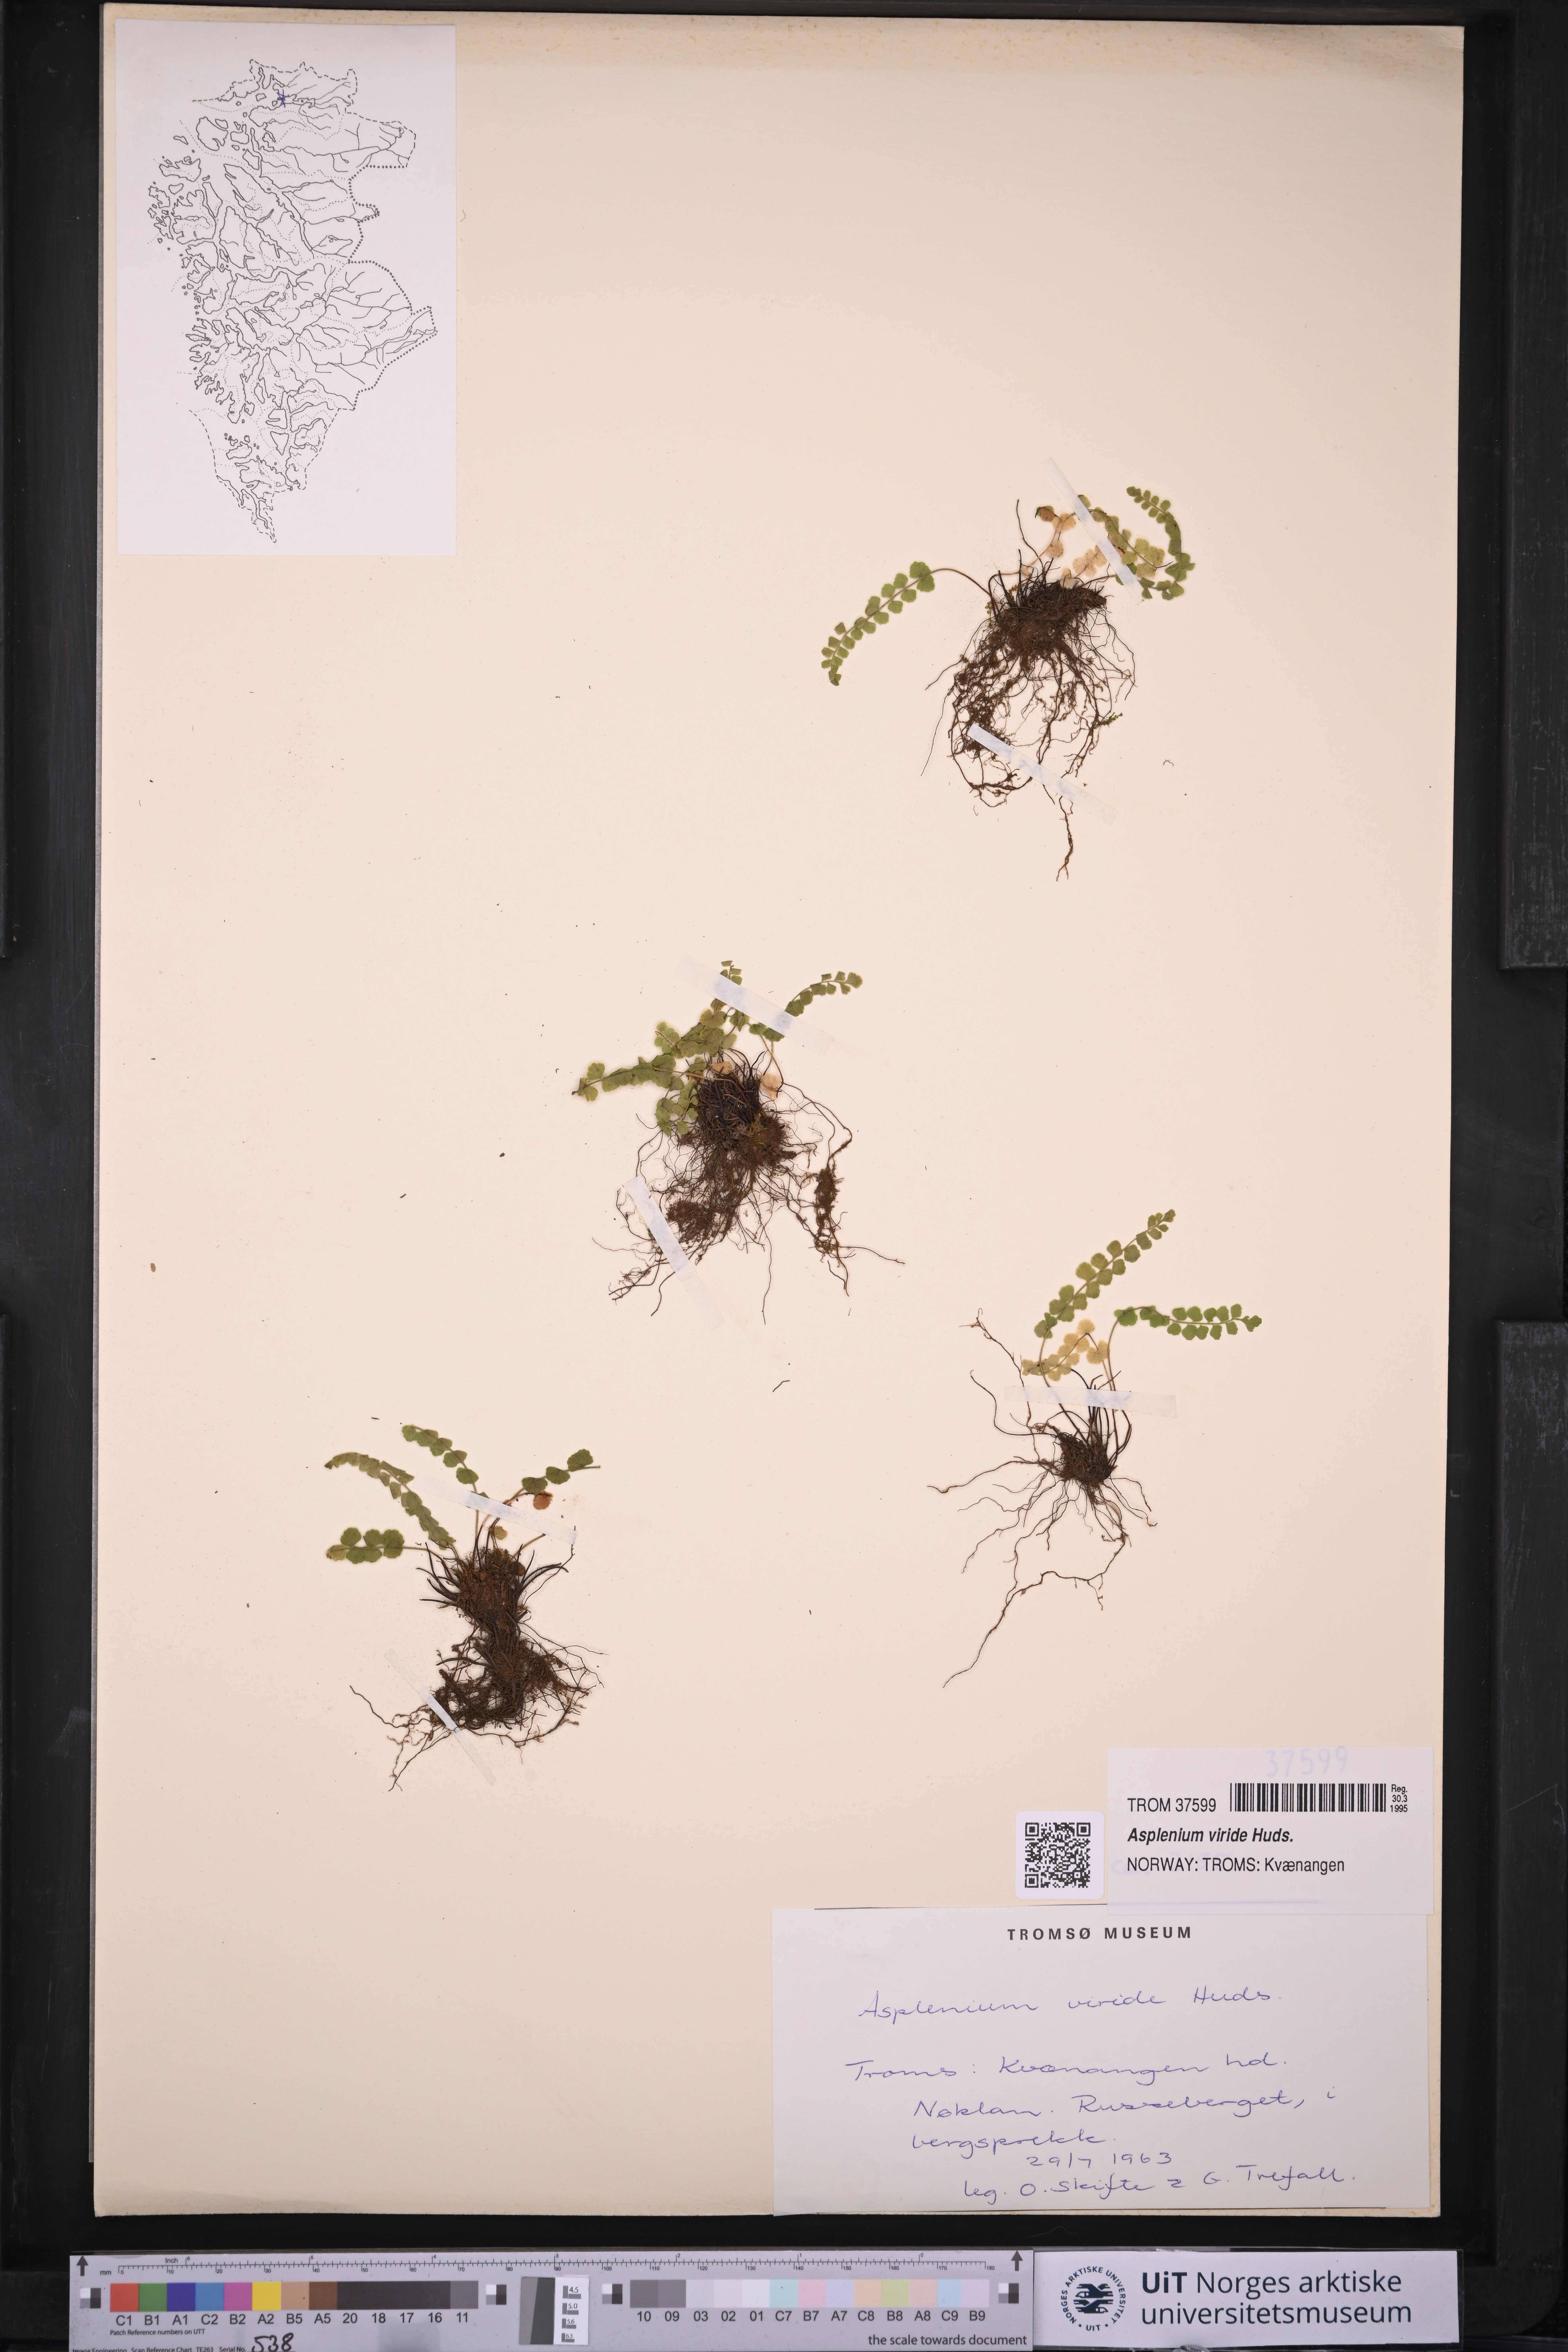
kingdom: Plantae
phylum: Tracheophyta
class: Polypodiopsida
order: Polypodiales
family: Aspleniaceae
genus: Asplenium
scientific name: Asplenium viride
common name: Green spleenwort
